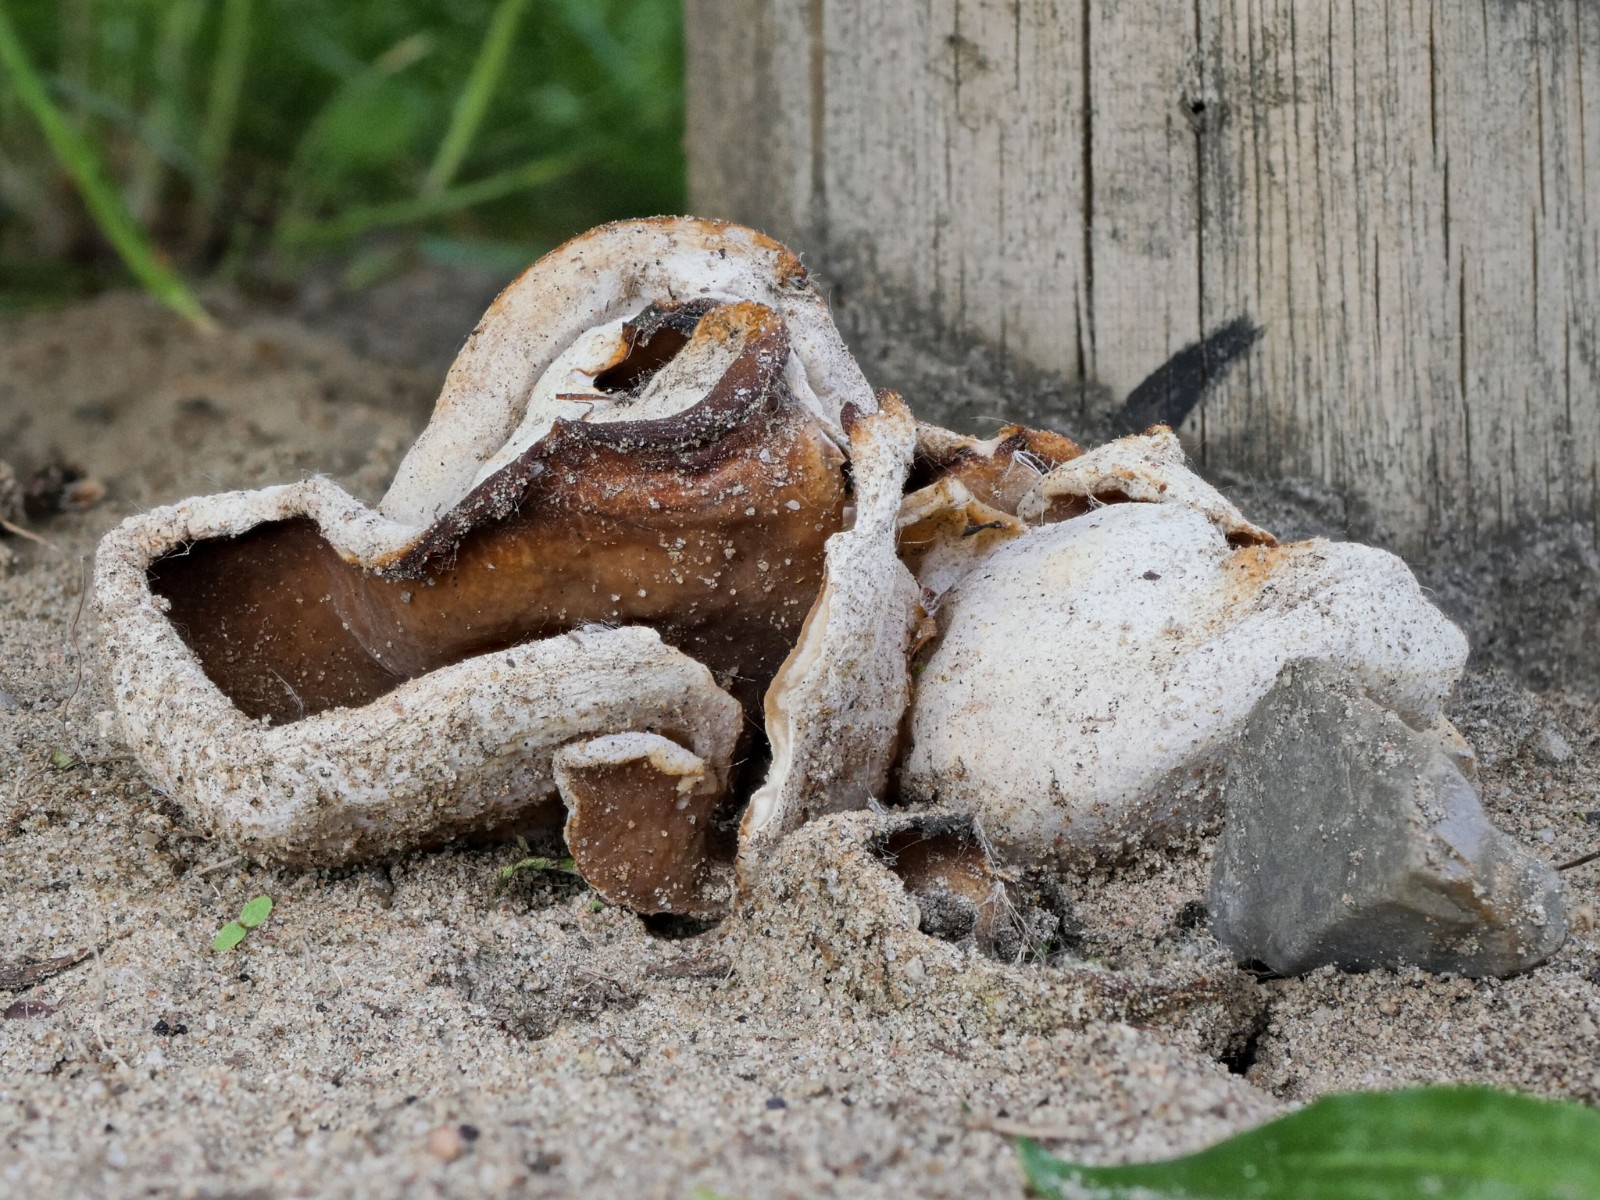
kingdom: Fungi
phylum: Ascomycota
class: Pezizomycetes
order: Pezizales
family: Pezizaceae
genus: Peziza
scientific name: Peziza
